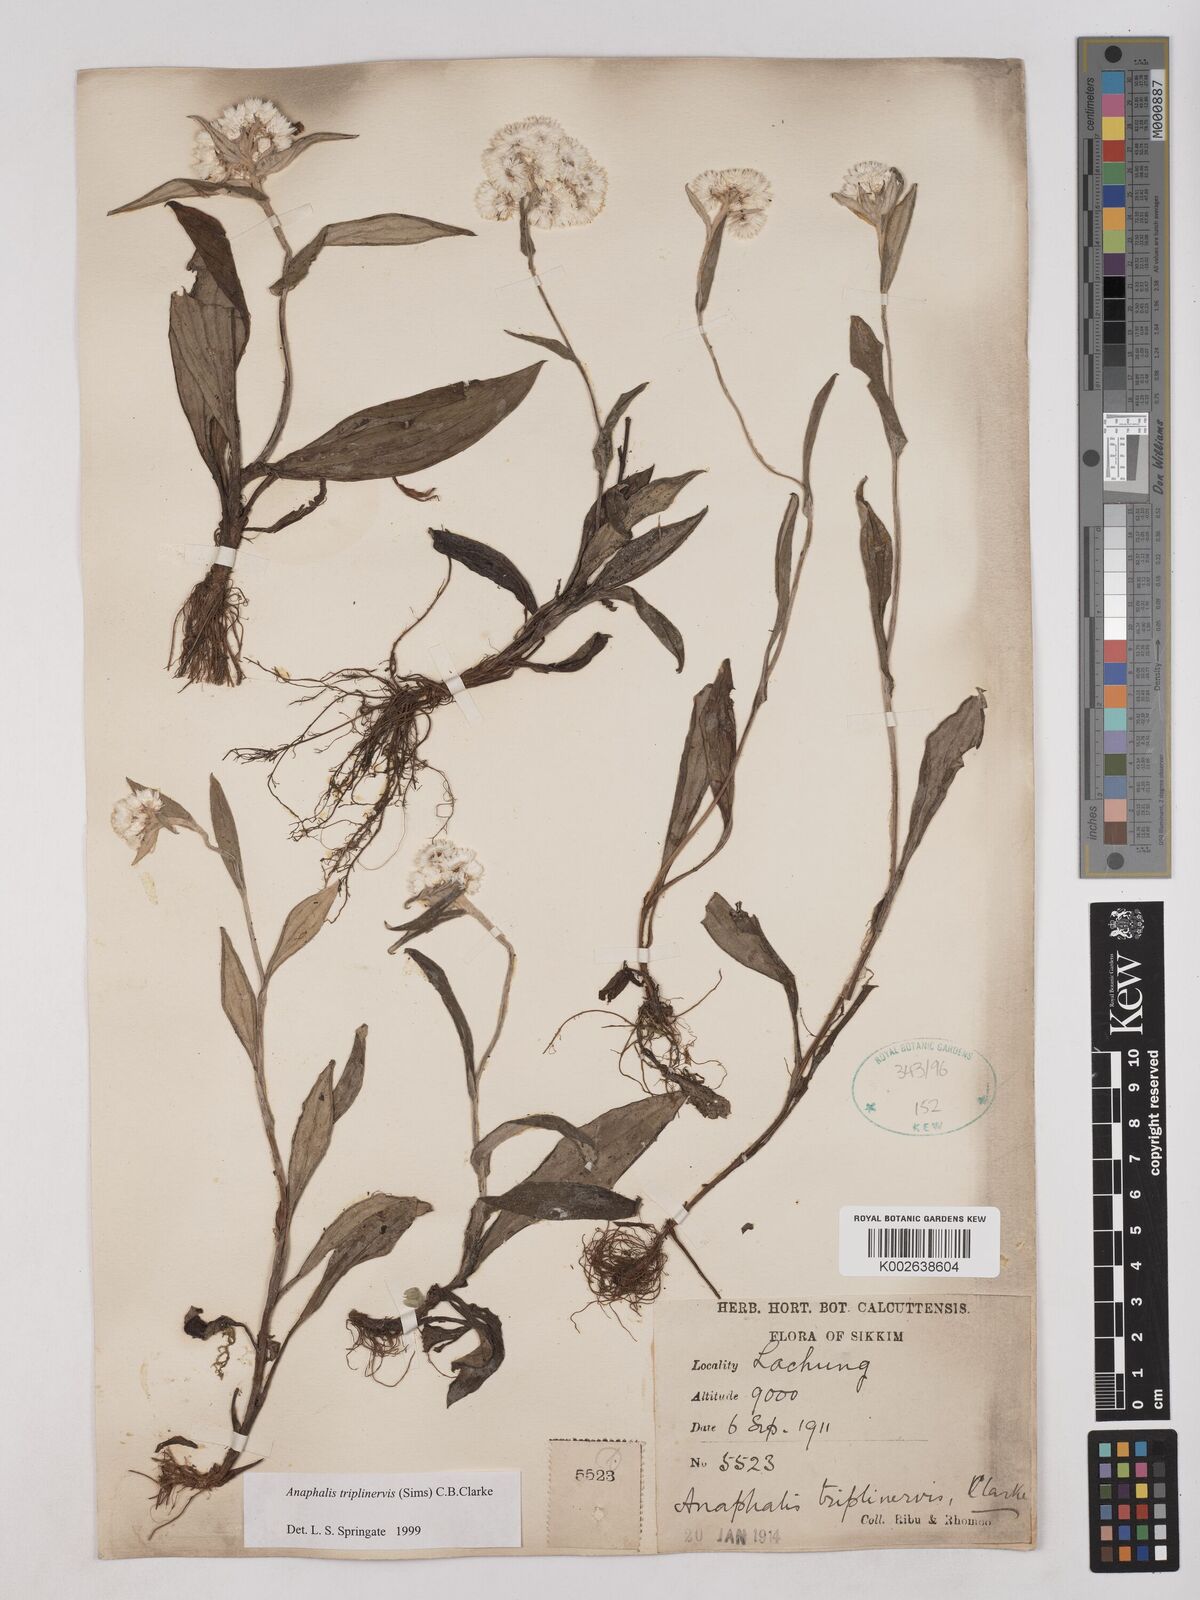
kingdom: Plantae
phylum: Tracheophyta
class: Magnoliopsida
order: Asterales
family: Asteraceae
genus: Anaphalis
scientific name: Anaphalis triplinervis
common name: Pearly everlasting
